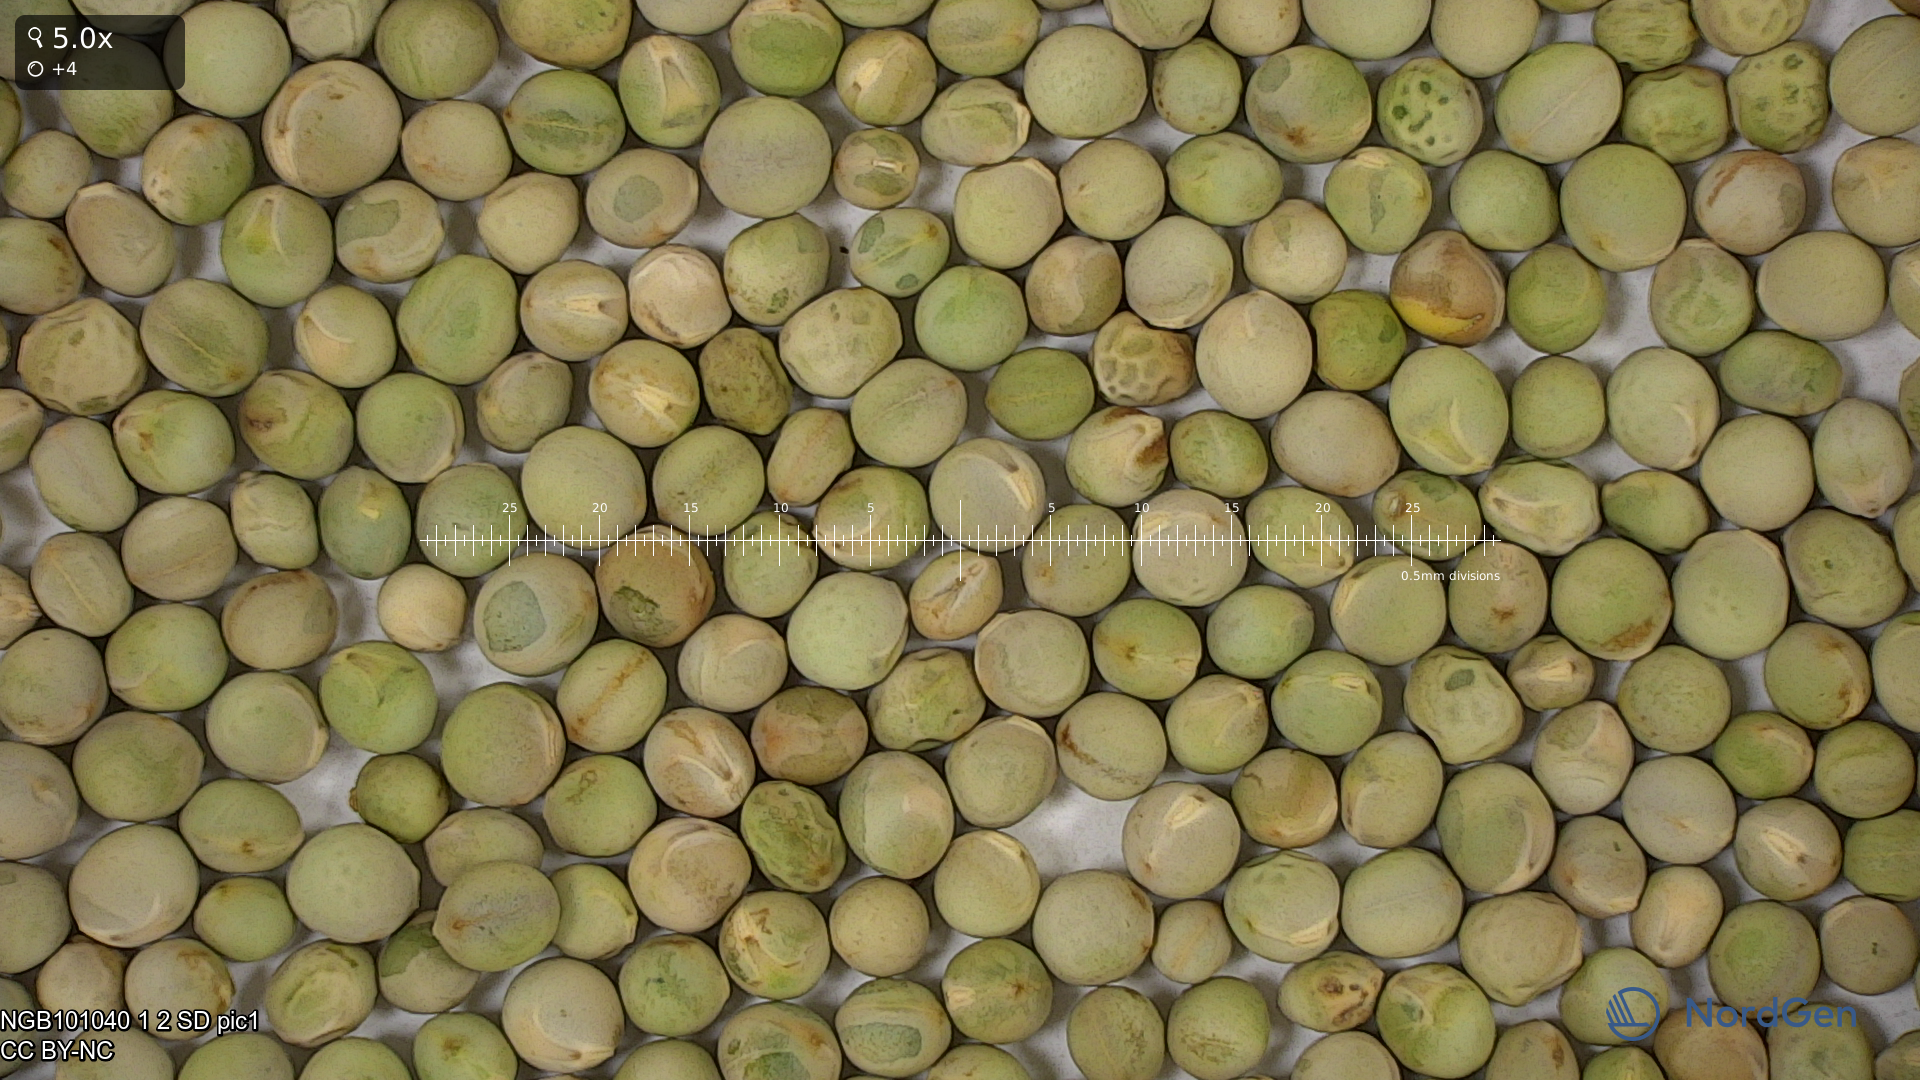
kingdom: Plantae
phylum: Tracheophyta
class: Magnoliopsida
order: Fabales
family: Fabaceae
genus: Lathyrus
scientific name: Lathyrus oleraceus
